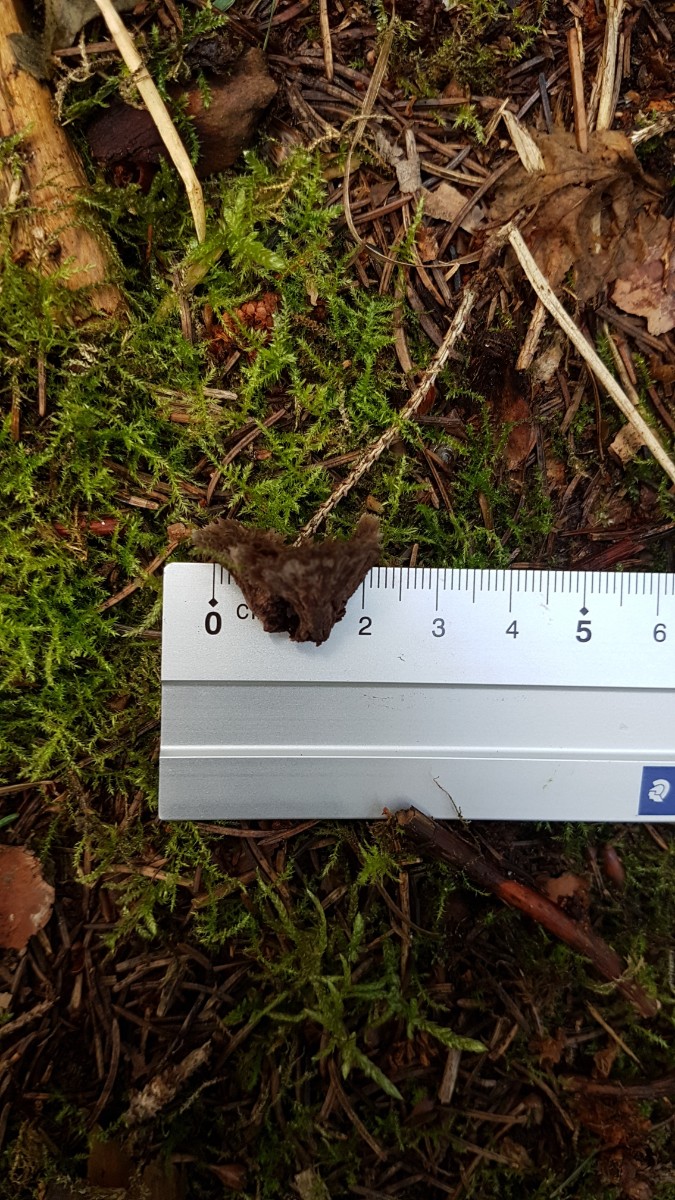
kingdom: Fungi
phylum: Basidiomycota
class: Agaricomycetes
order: Thelephorales
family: Thelephoraceae
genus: Thelephora
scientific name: Thelephora terrestris
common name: fliget frynsesvamp
